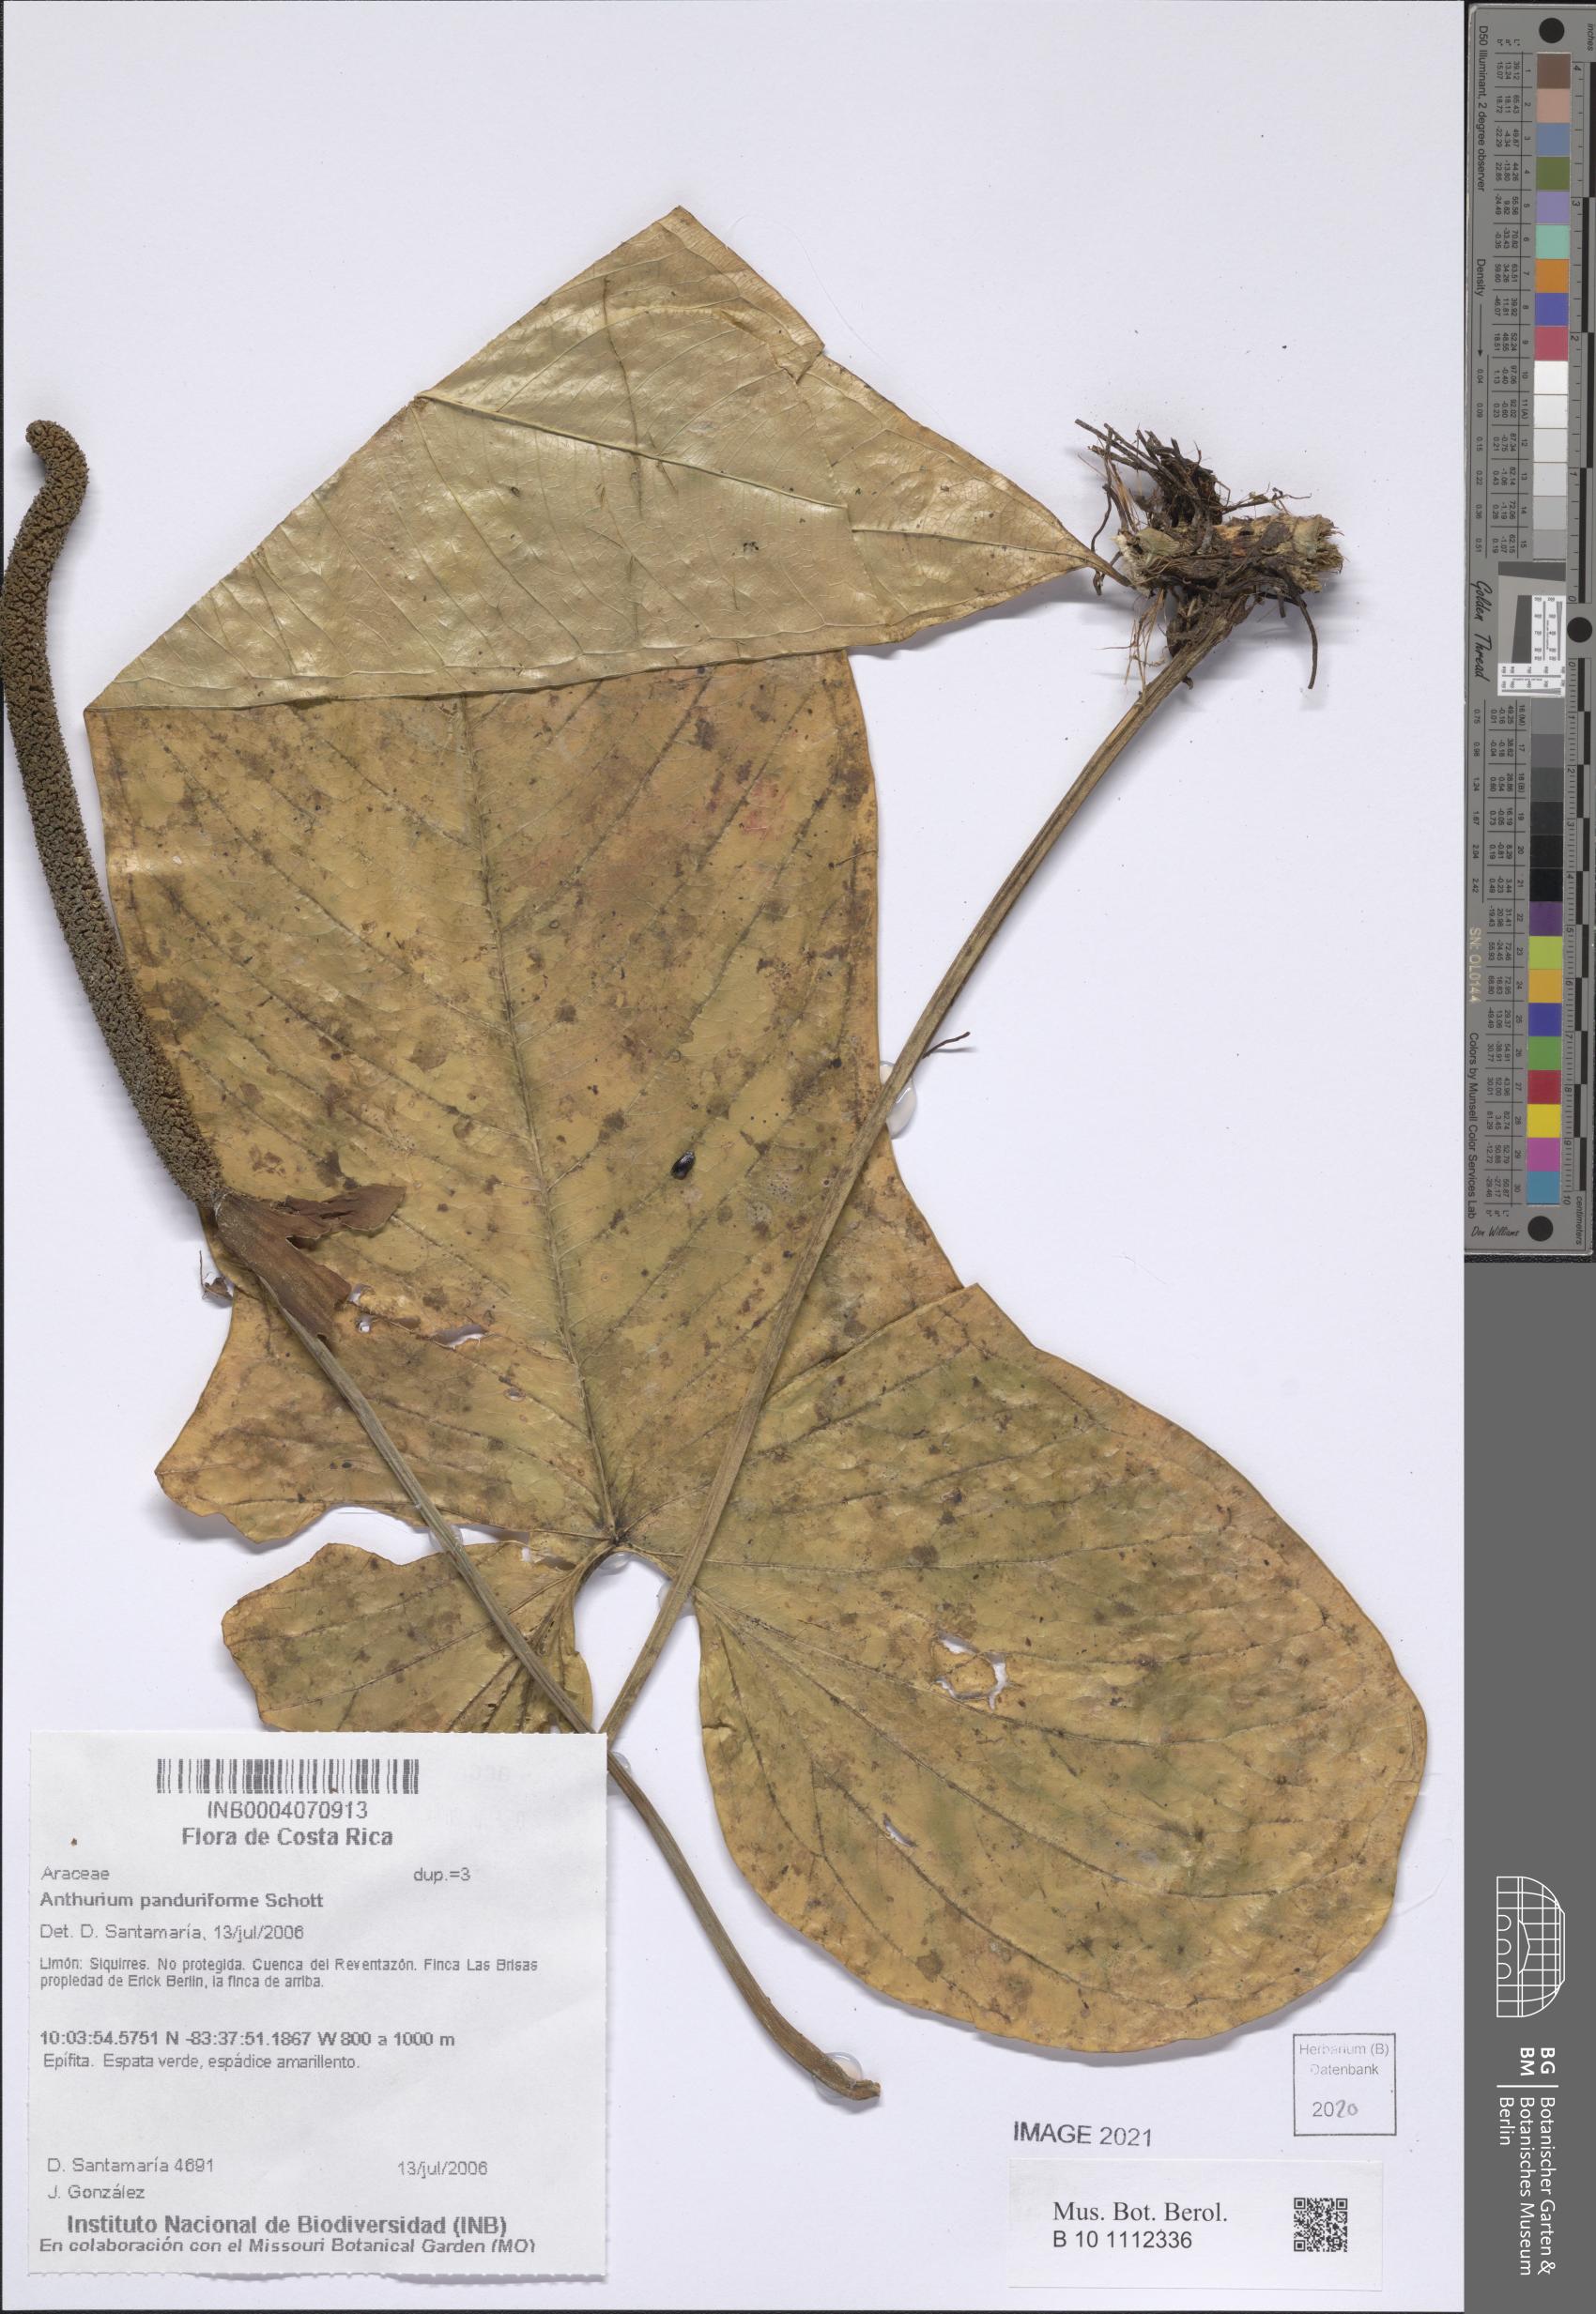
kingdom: Plantae
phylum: Tracheophyta
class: Liliopsida
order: Alismatales
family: Araceae
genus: Anthurium
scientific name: Anthurium panduriforme
